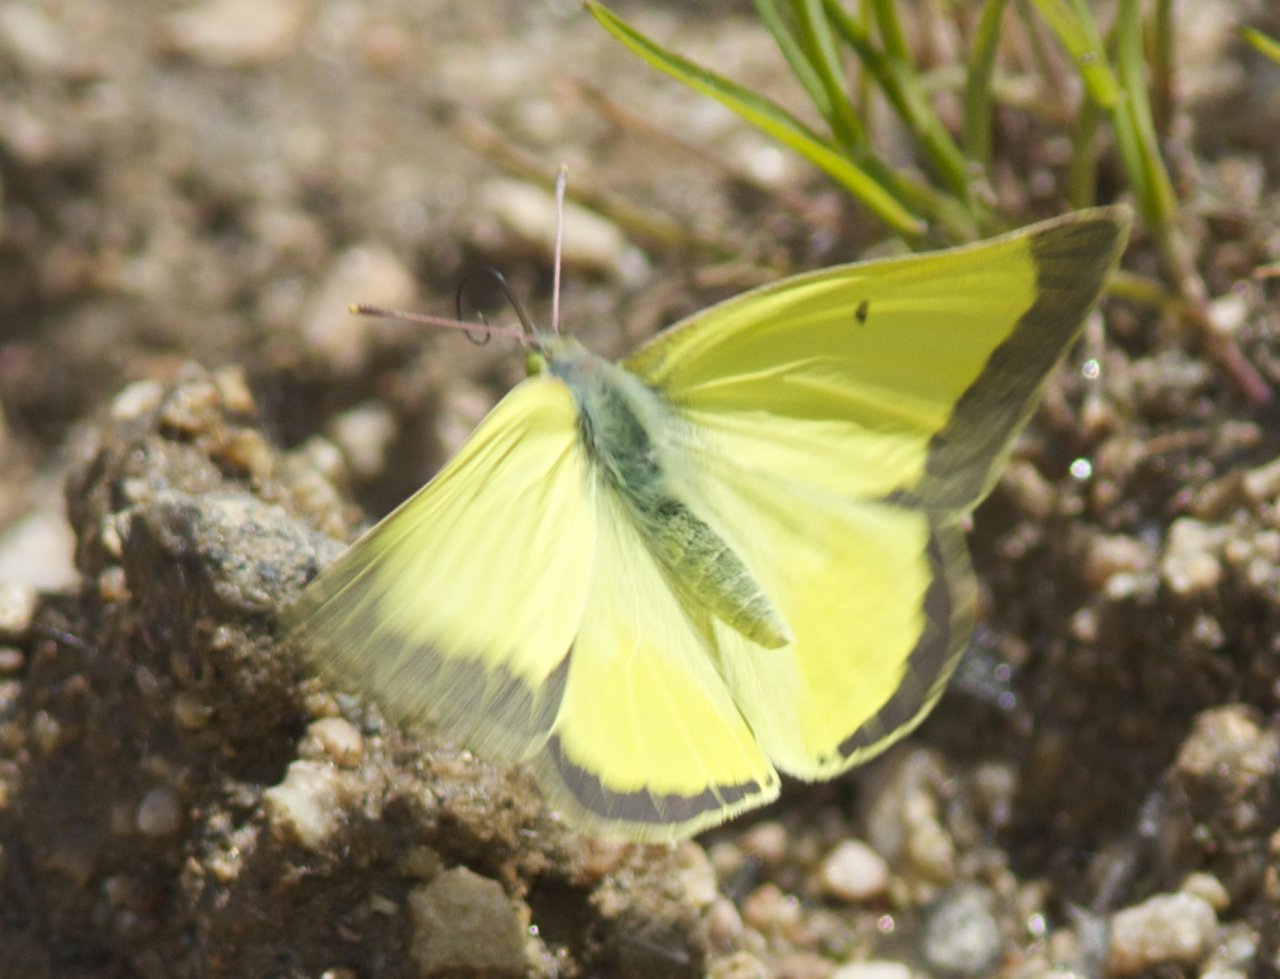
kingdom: Animalia
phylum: Arthropoda
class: Insecta
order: Lepidoptera
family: Pieridae
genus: Colias
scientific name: Colias
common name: Clouded Yellows
